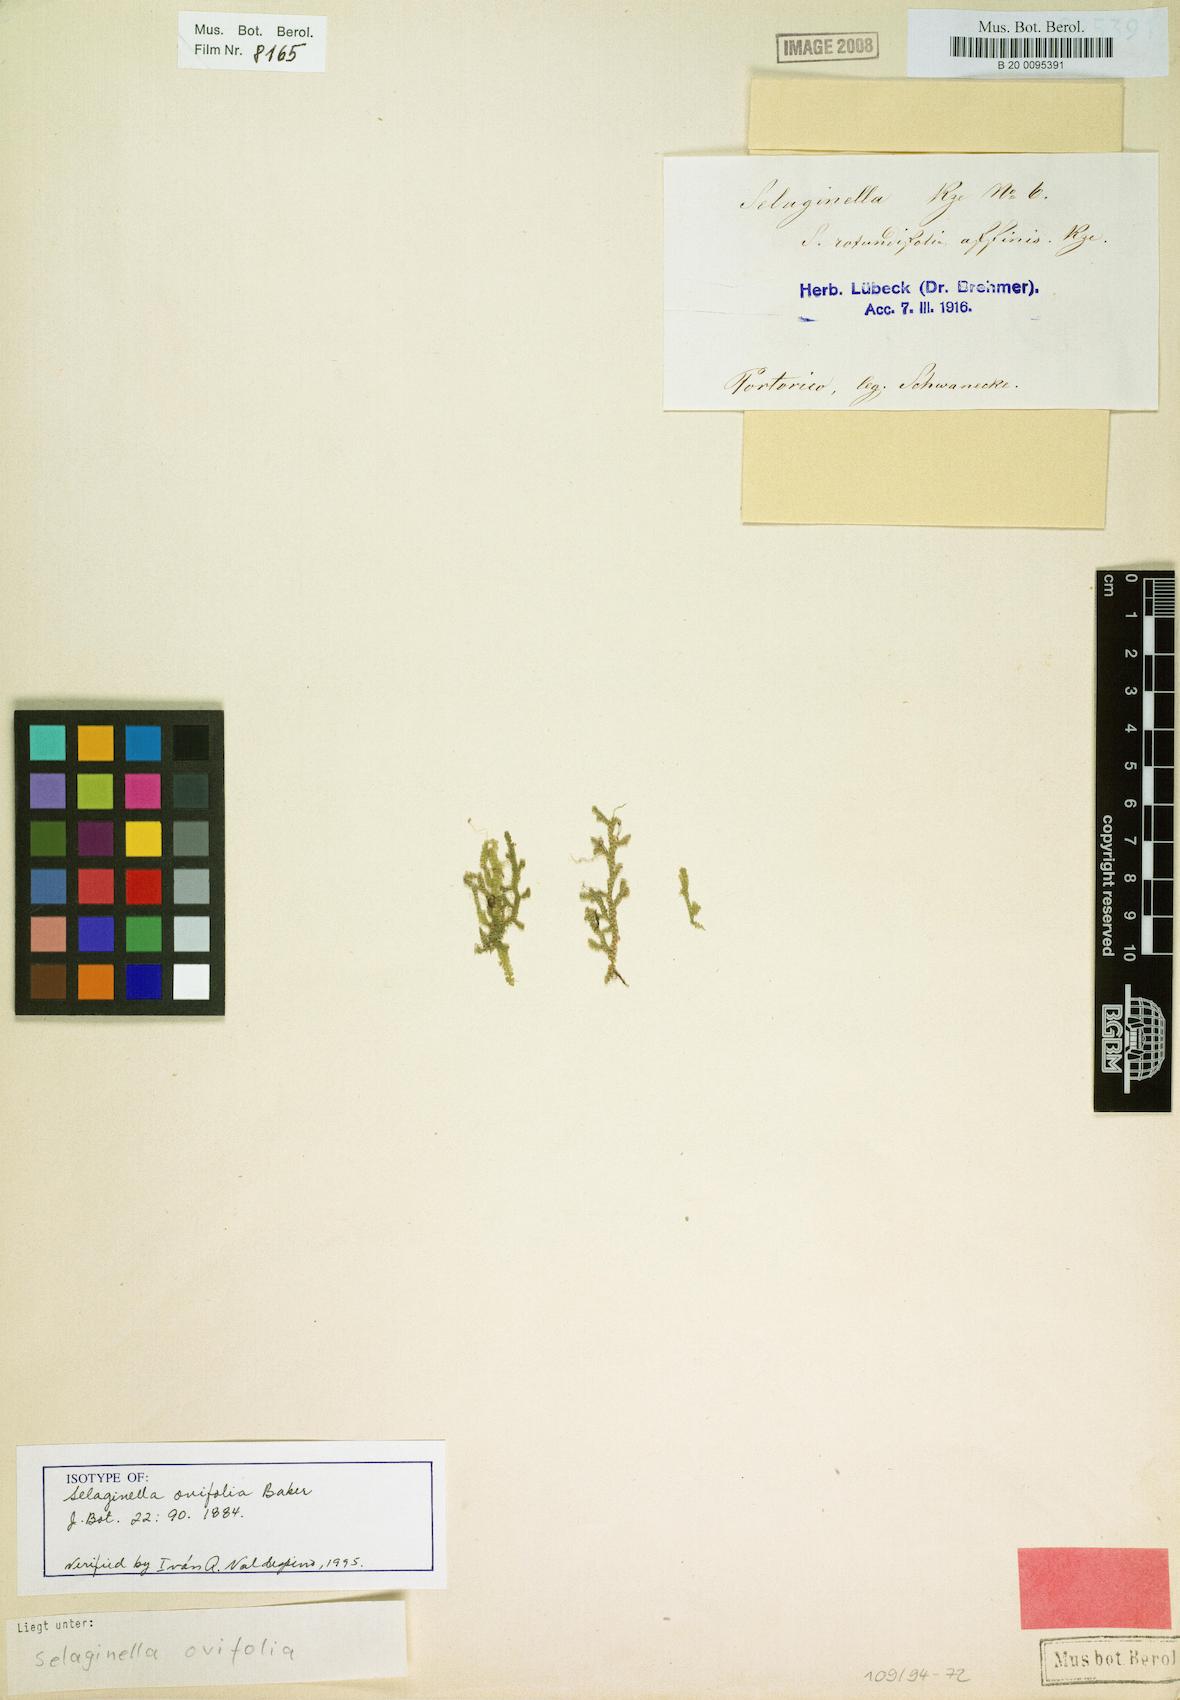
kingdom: Plantae
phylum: Tracheophyta
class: Lycopodiopsida
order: Selaginellales
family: Selaginellaceae
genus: Selaginella
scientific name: Selaginella ovifolia
